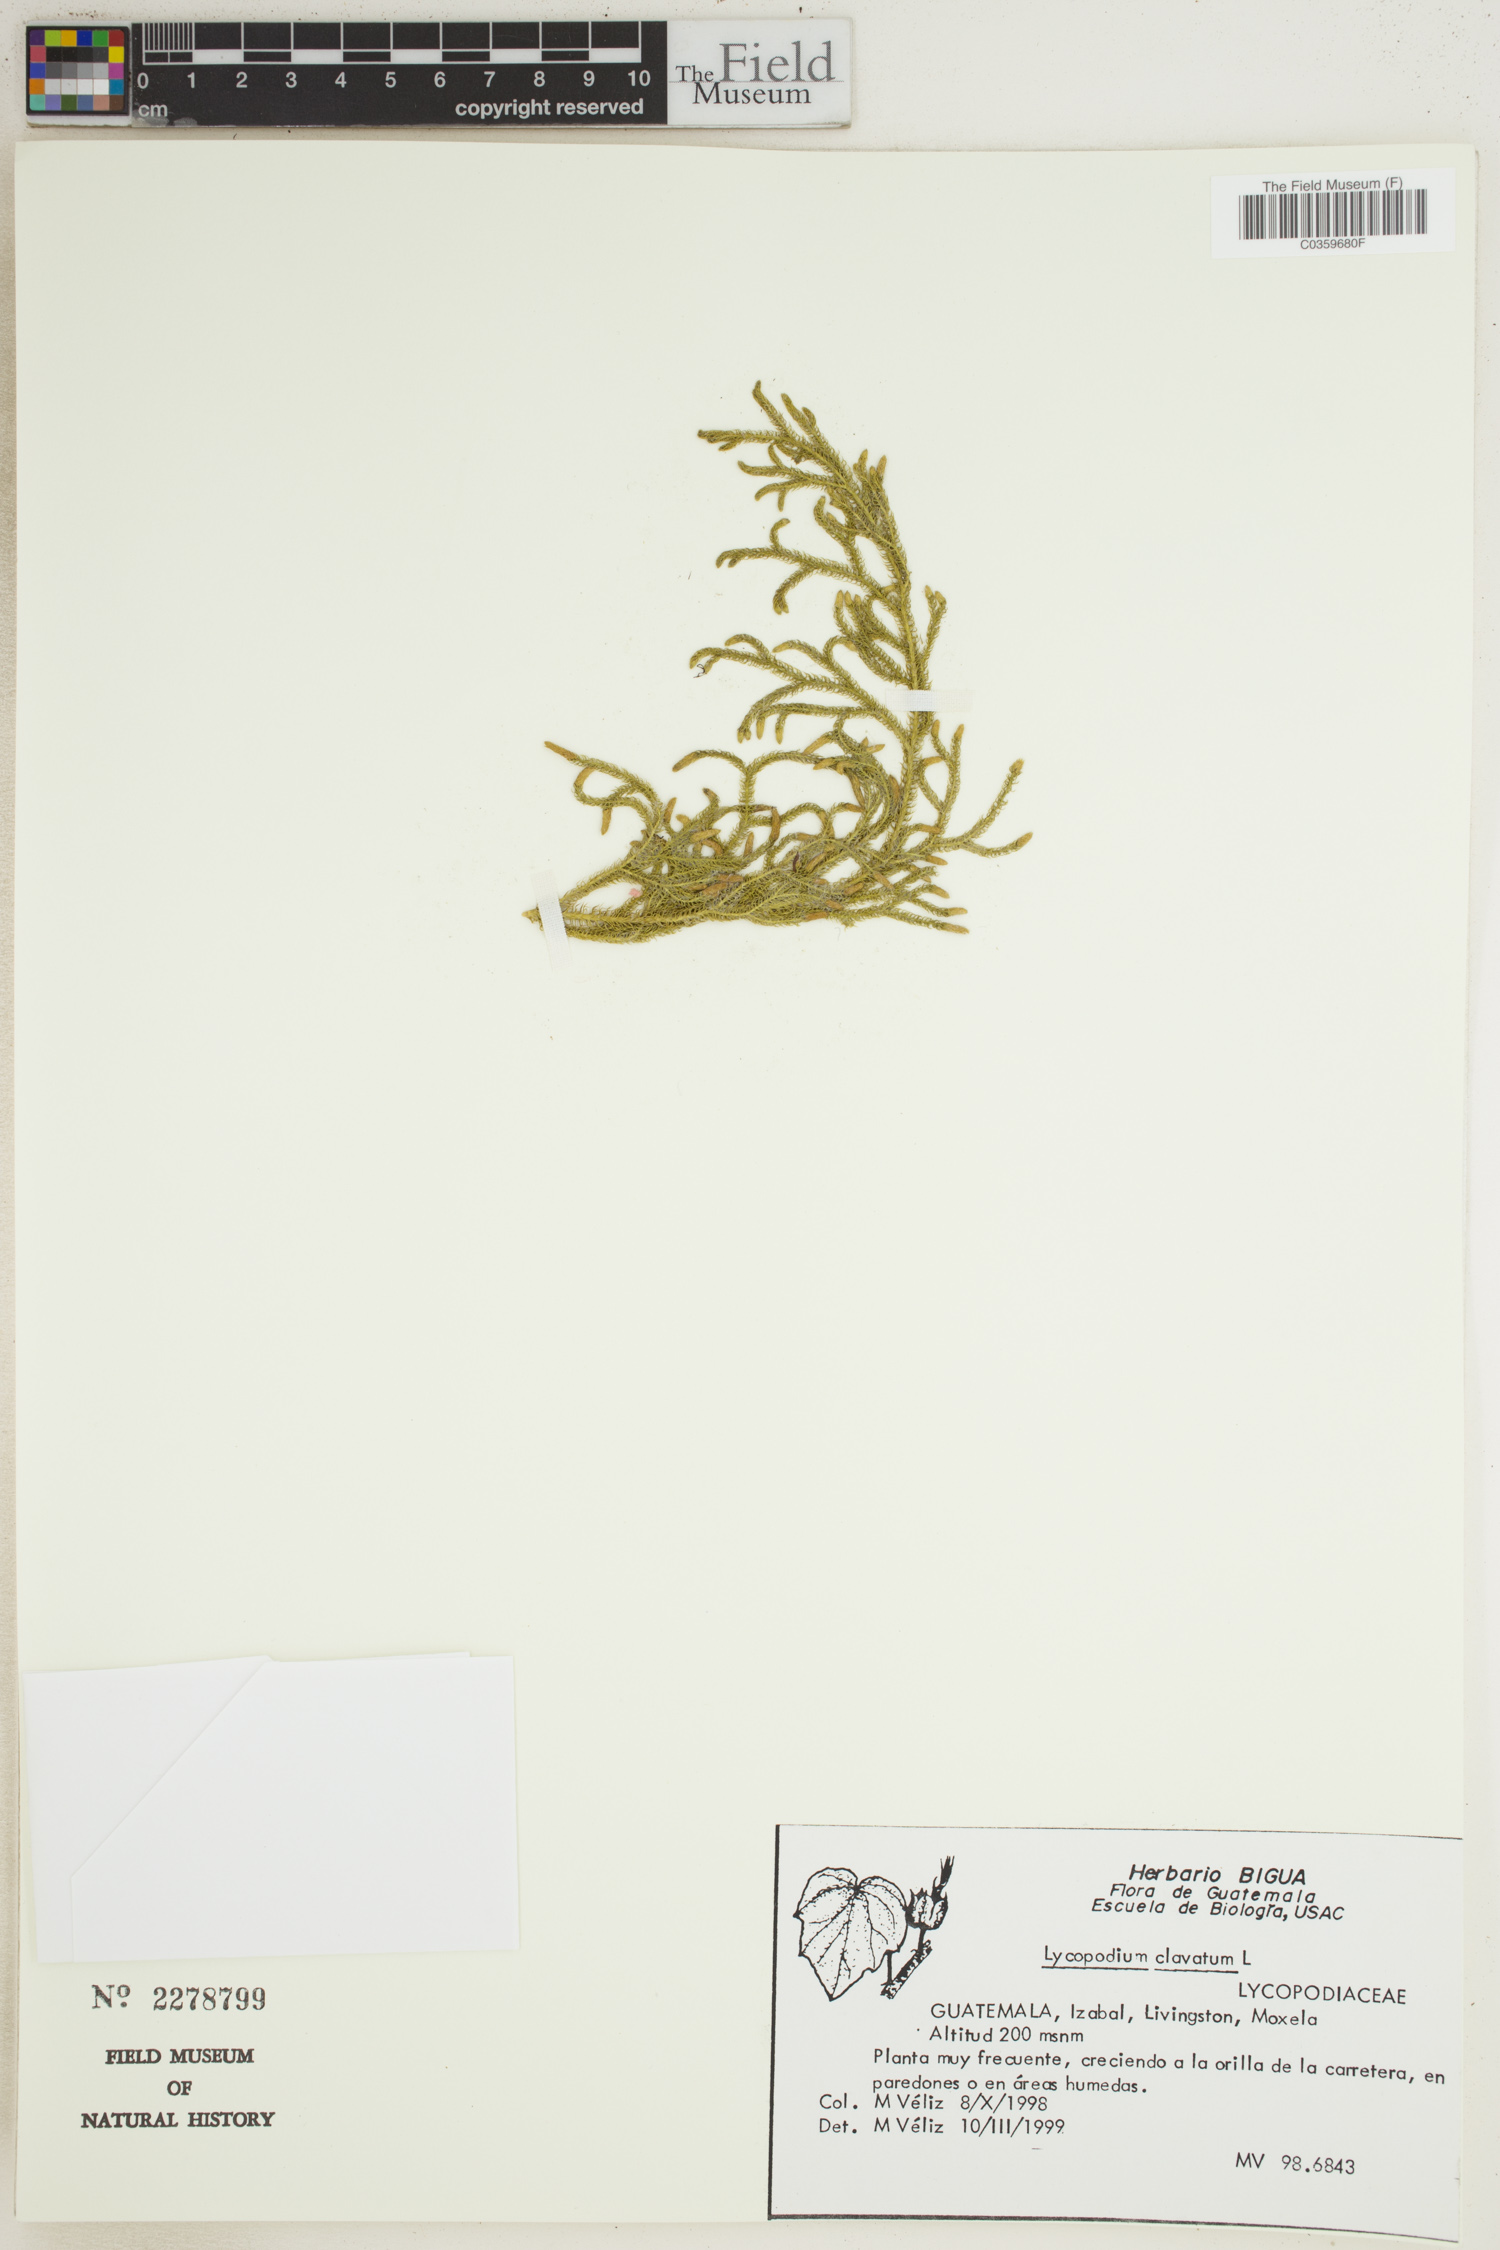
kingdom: Plantae
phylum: Tracheophyta
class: Lycopodiopsida
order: Lycopodiales
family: Lycopodiaceae
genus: Lycopodium
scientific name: Lycopodium clavatum
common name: Stag's-horn clubmoss
